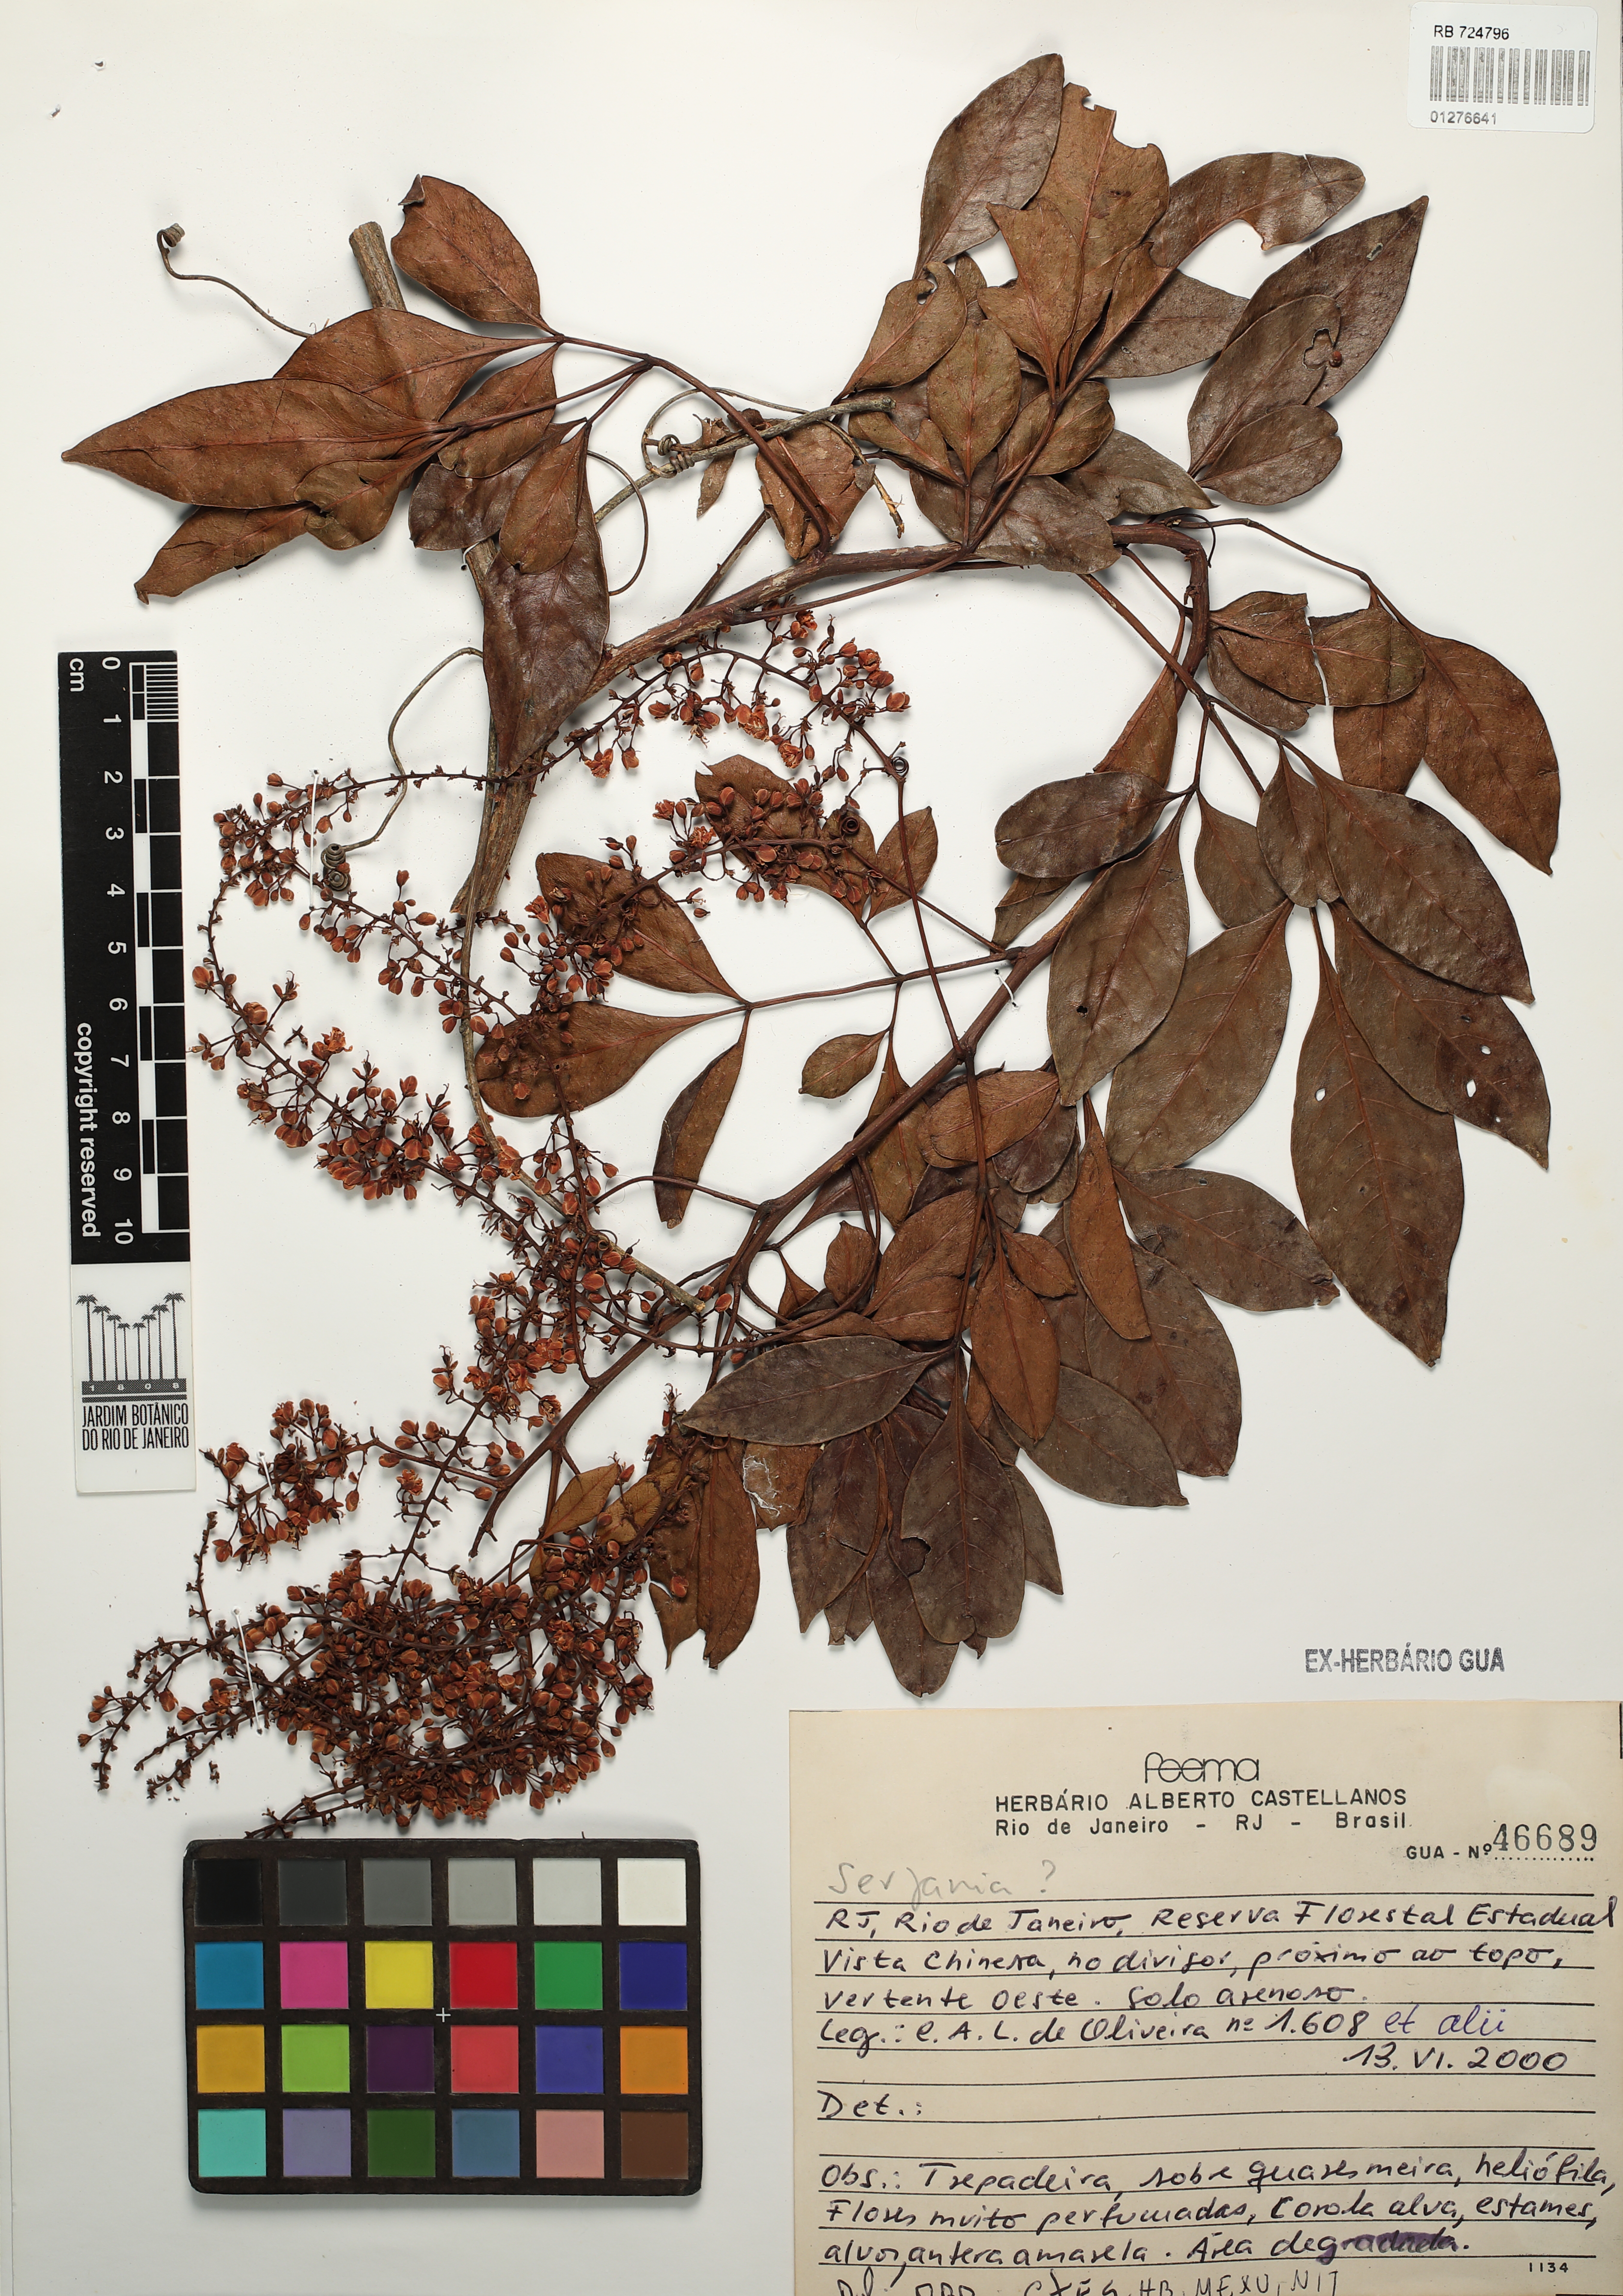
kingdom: Plantae
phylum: Tracheophyta
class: Magnoliopsida
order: Sapindales
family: Sapindaceae
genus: Serjania
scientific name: Serjania
